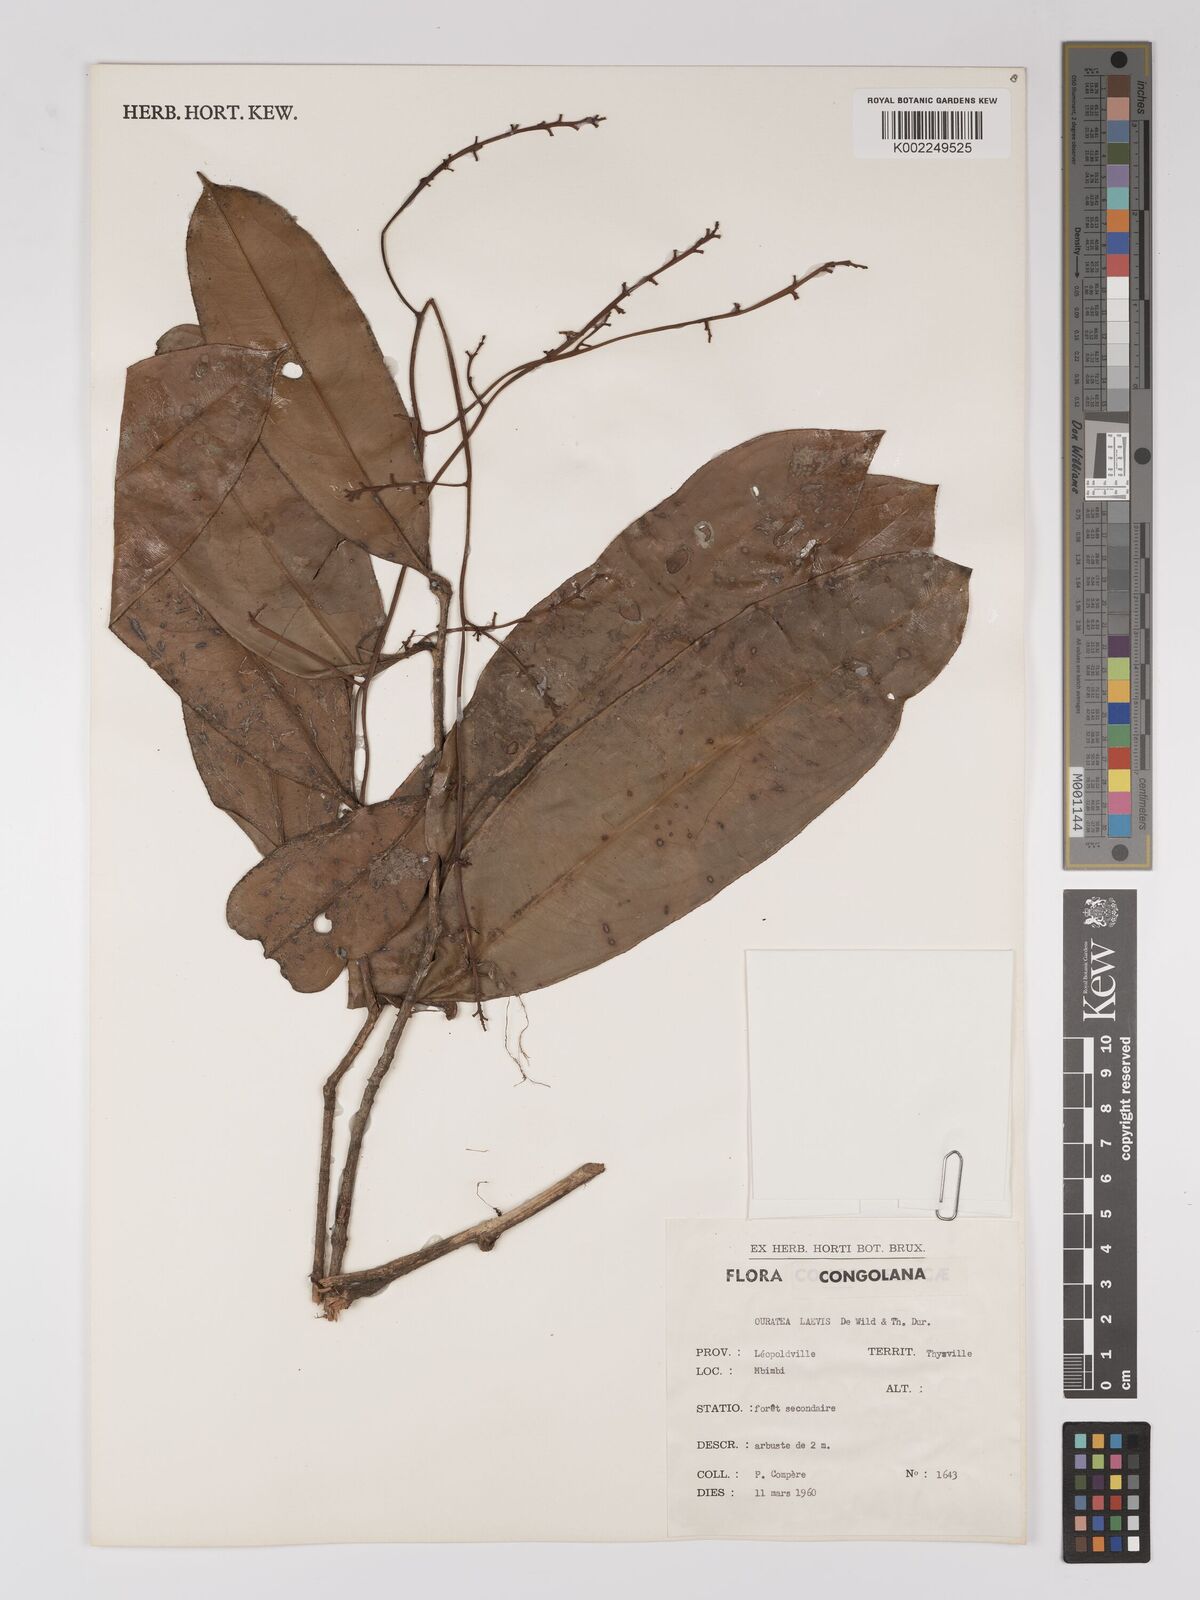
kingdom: Plantae
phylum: Tracheophyta
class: Magnoliopsida
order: Malpighiales
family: Ochnaceae
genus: Campylospermum
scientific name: Campylospermum laeve
